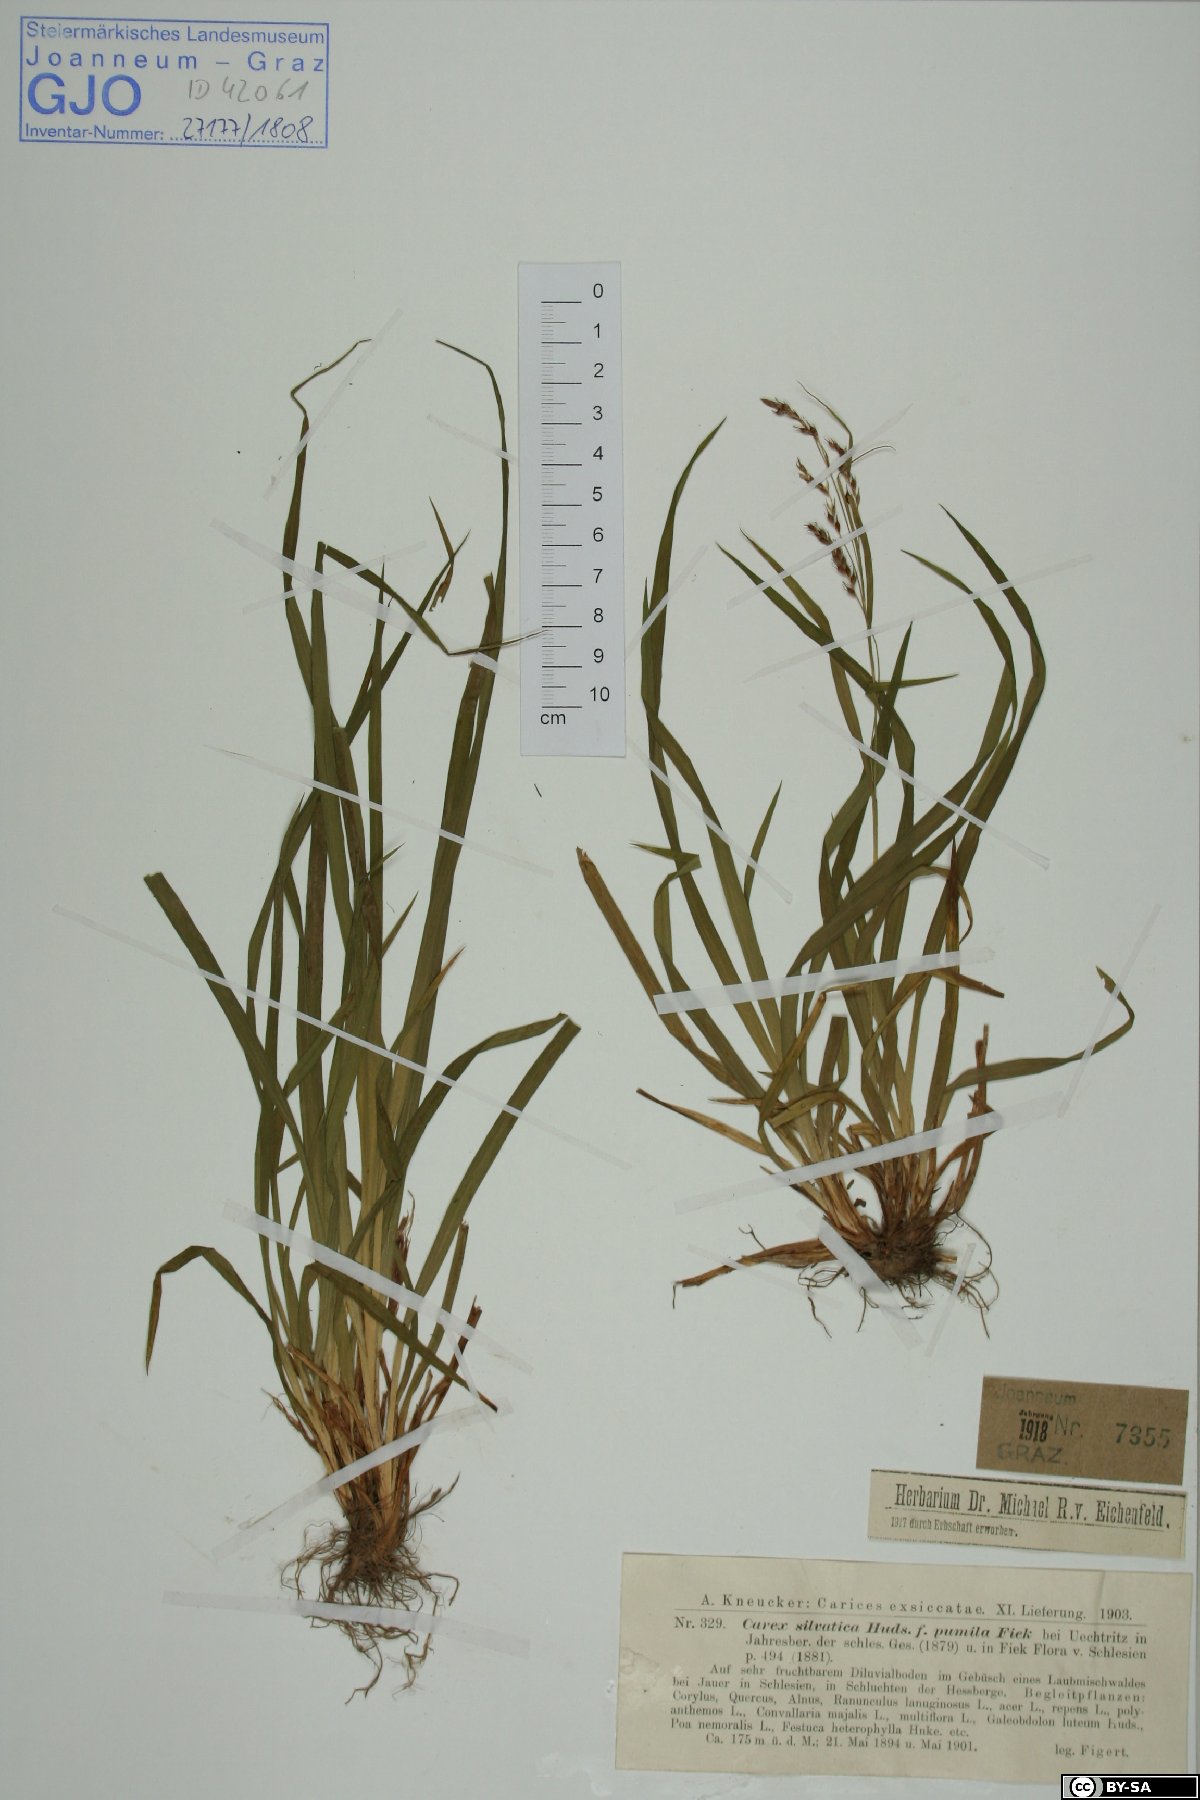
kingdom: Plantae
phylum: Tracheophyta
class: Liliopsida
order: Poales
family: Cyperaceae
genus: Carex
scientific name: Carex sylvatica
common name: Wood-sedge
